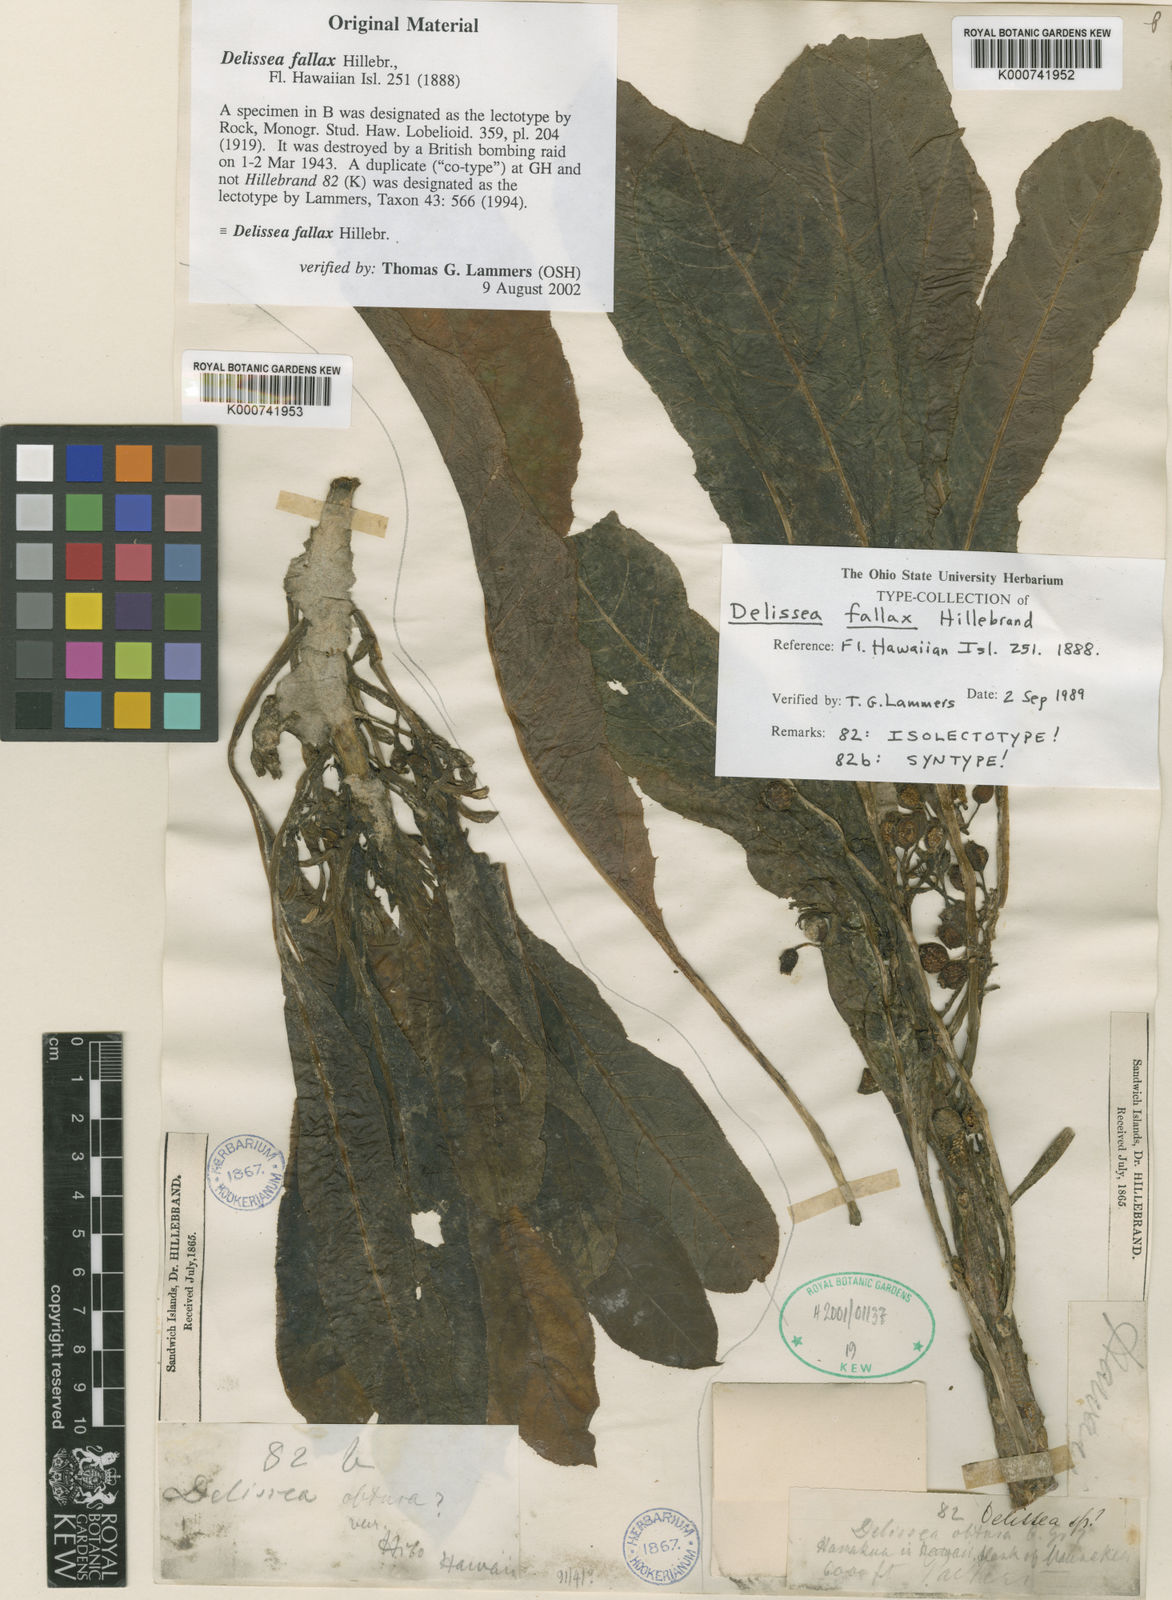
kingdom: Plantae
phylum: Tracheophyta
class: Magnoliopsida
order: Asterales
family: Campanulaceae
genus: Delissea
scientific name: Delissea fallax
